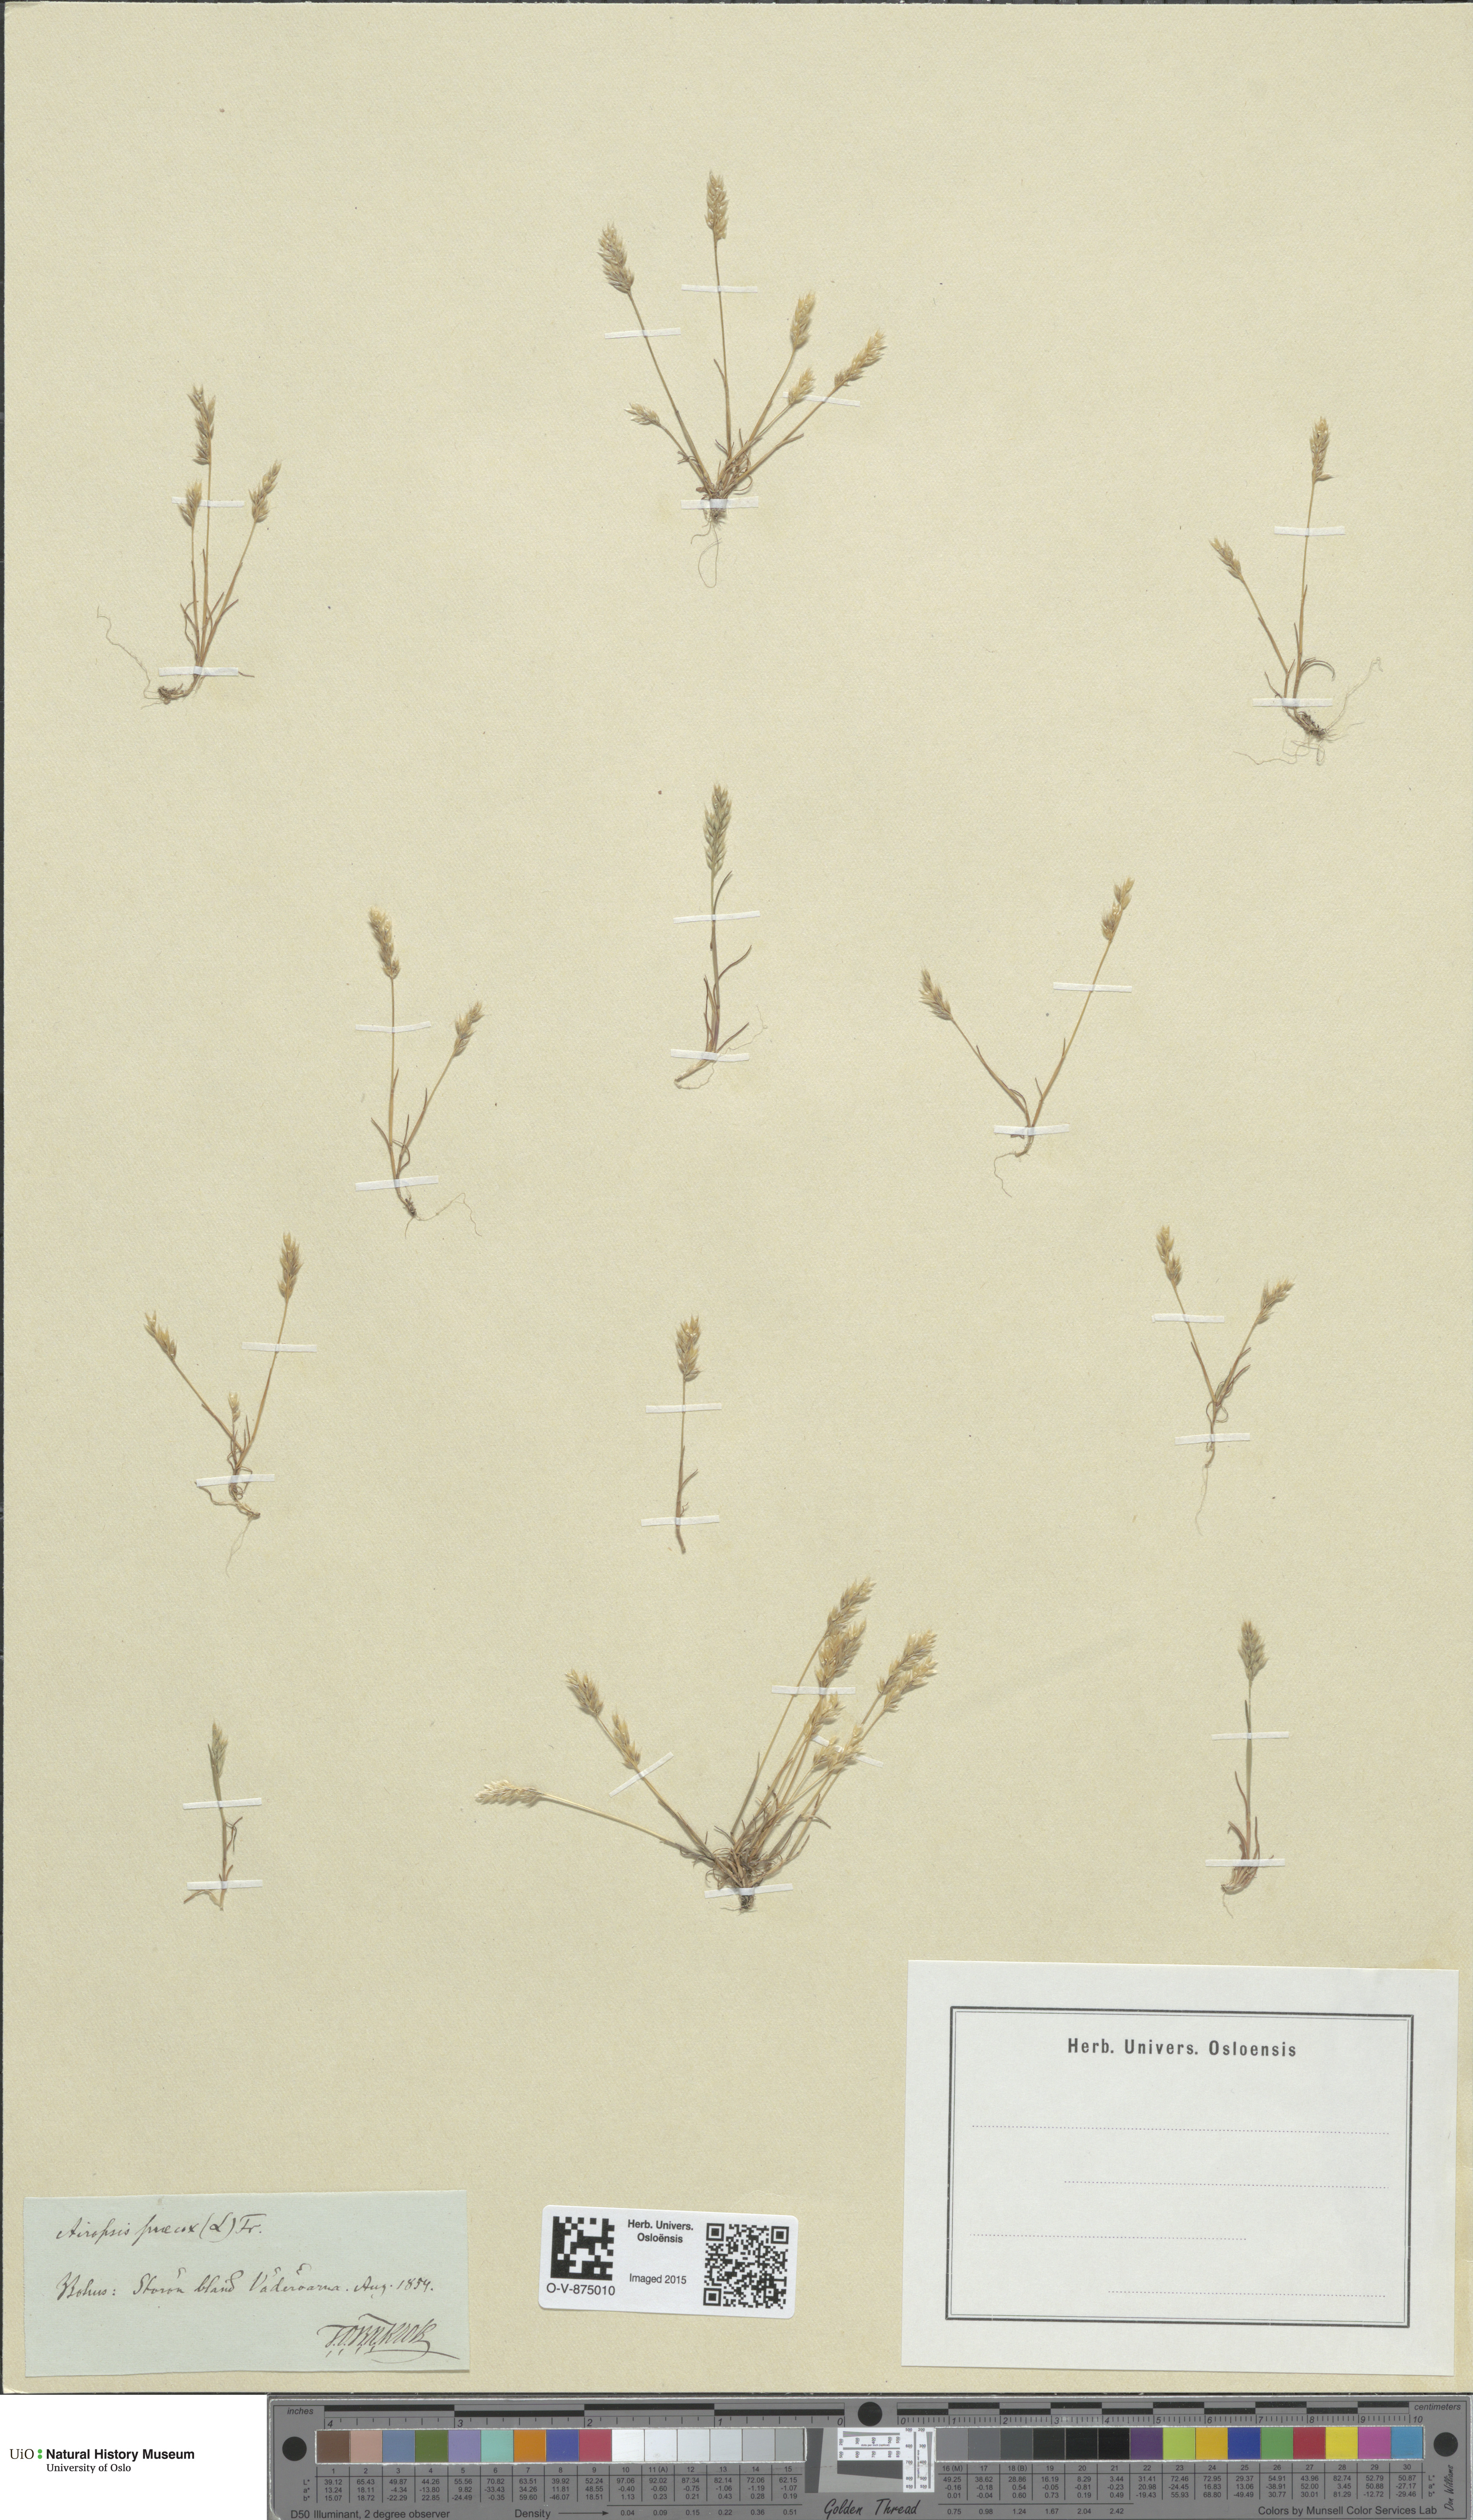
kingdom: Plantae
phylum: Tracheophyta
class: Liliopsida
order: Poales
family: Poaceae
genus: Aira
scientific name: Aira praecox
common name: Early hair-grass
